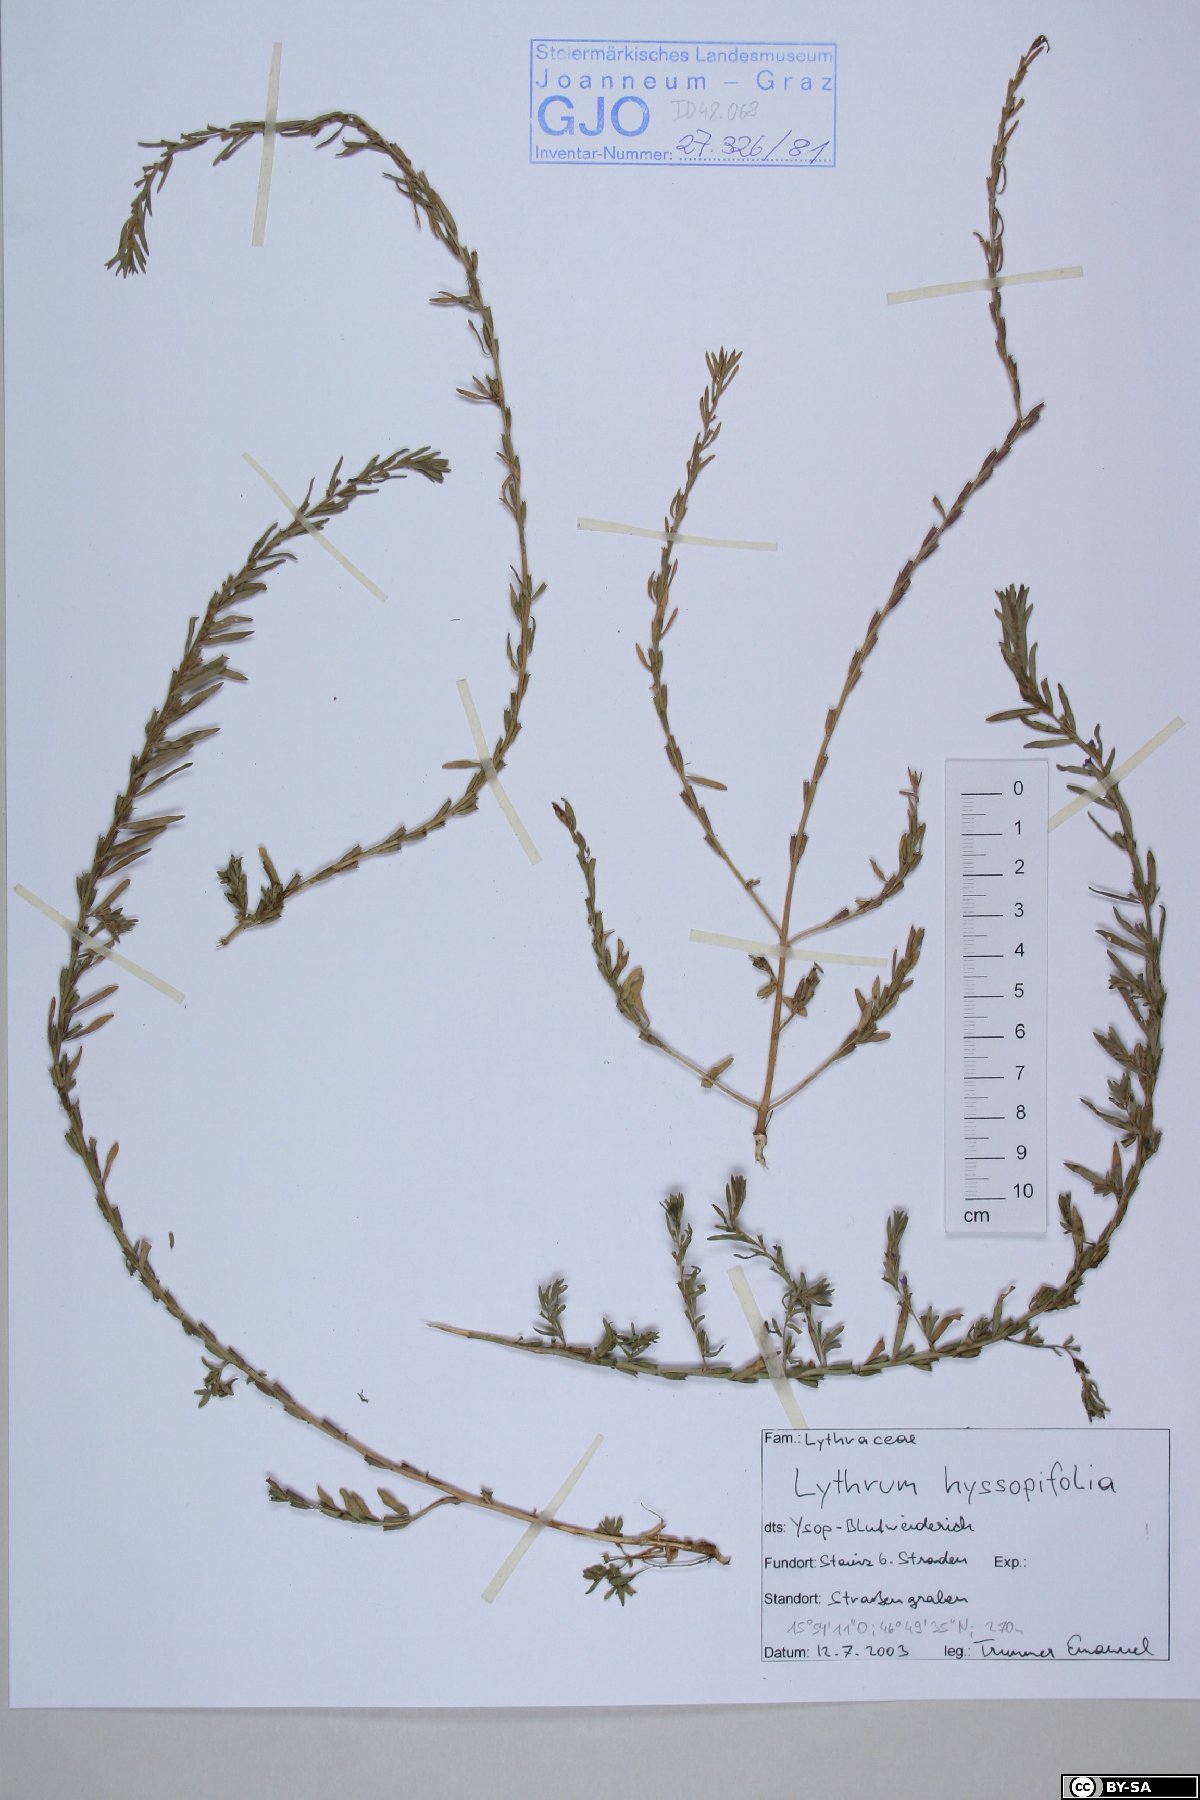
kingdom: Plantae
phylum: Tracheophyta
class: Magnoliopsida
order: Myrtales
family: Lythraceae
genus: Lythrum
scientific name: Lythrum hyssopifolia
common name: Grass-poly
